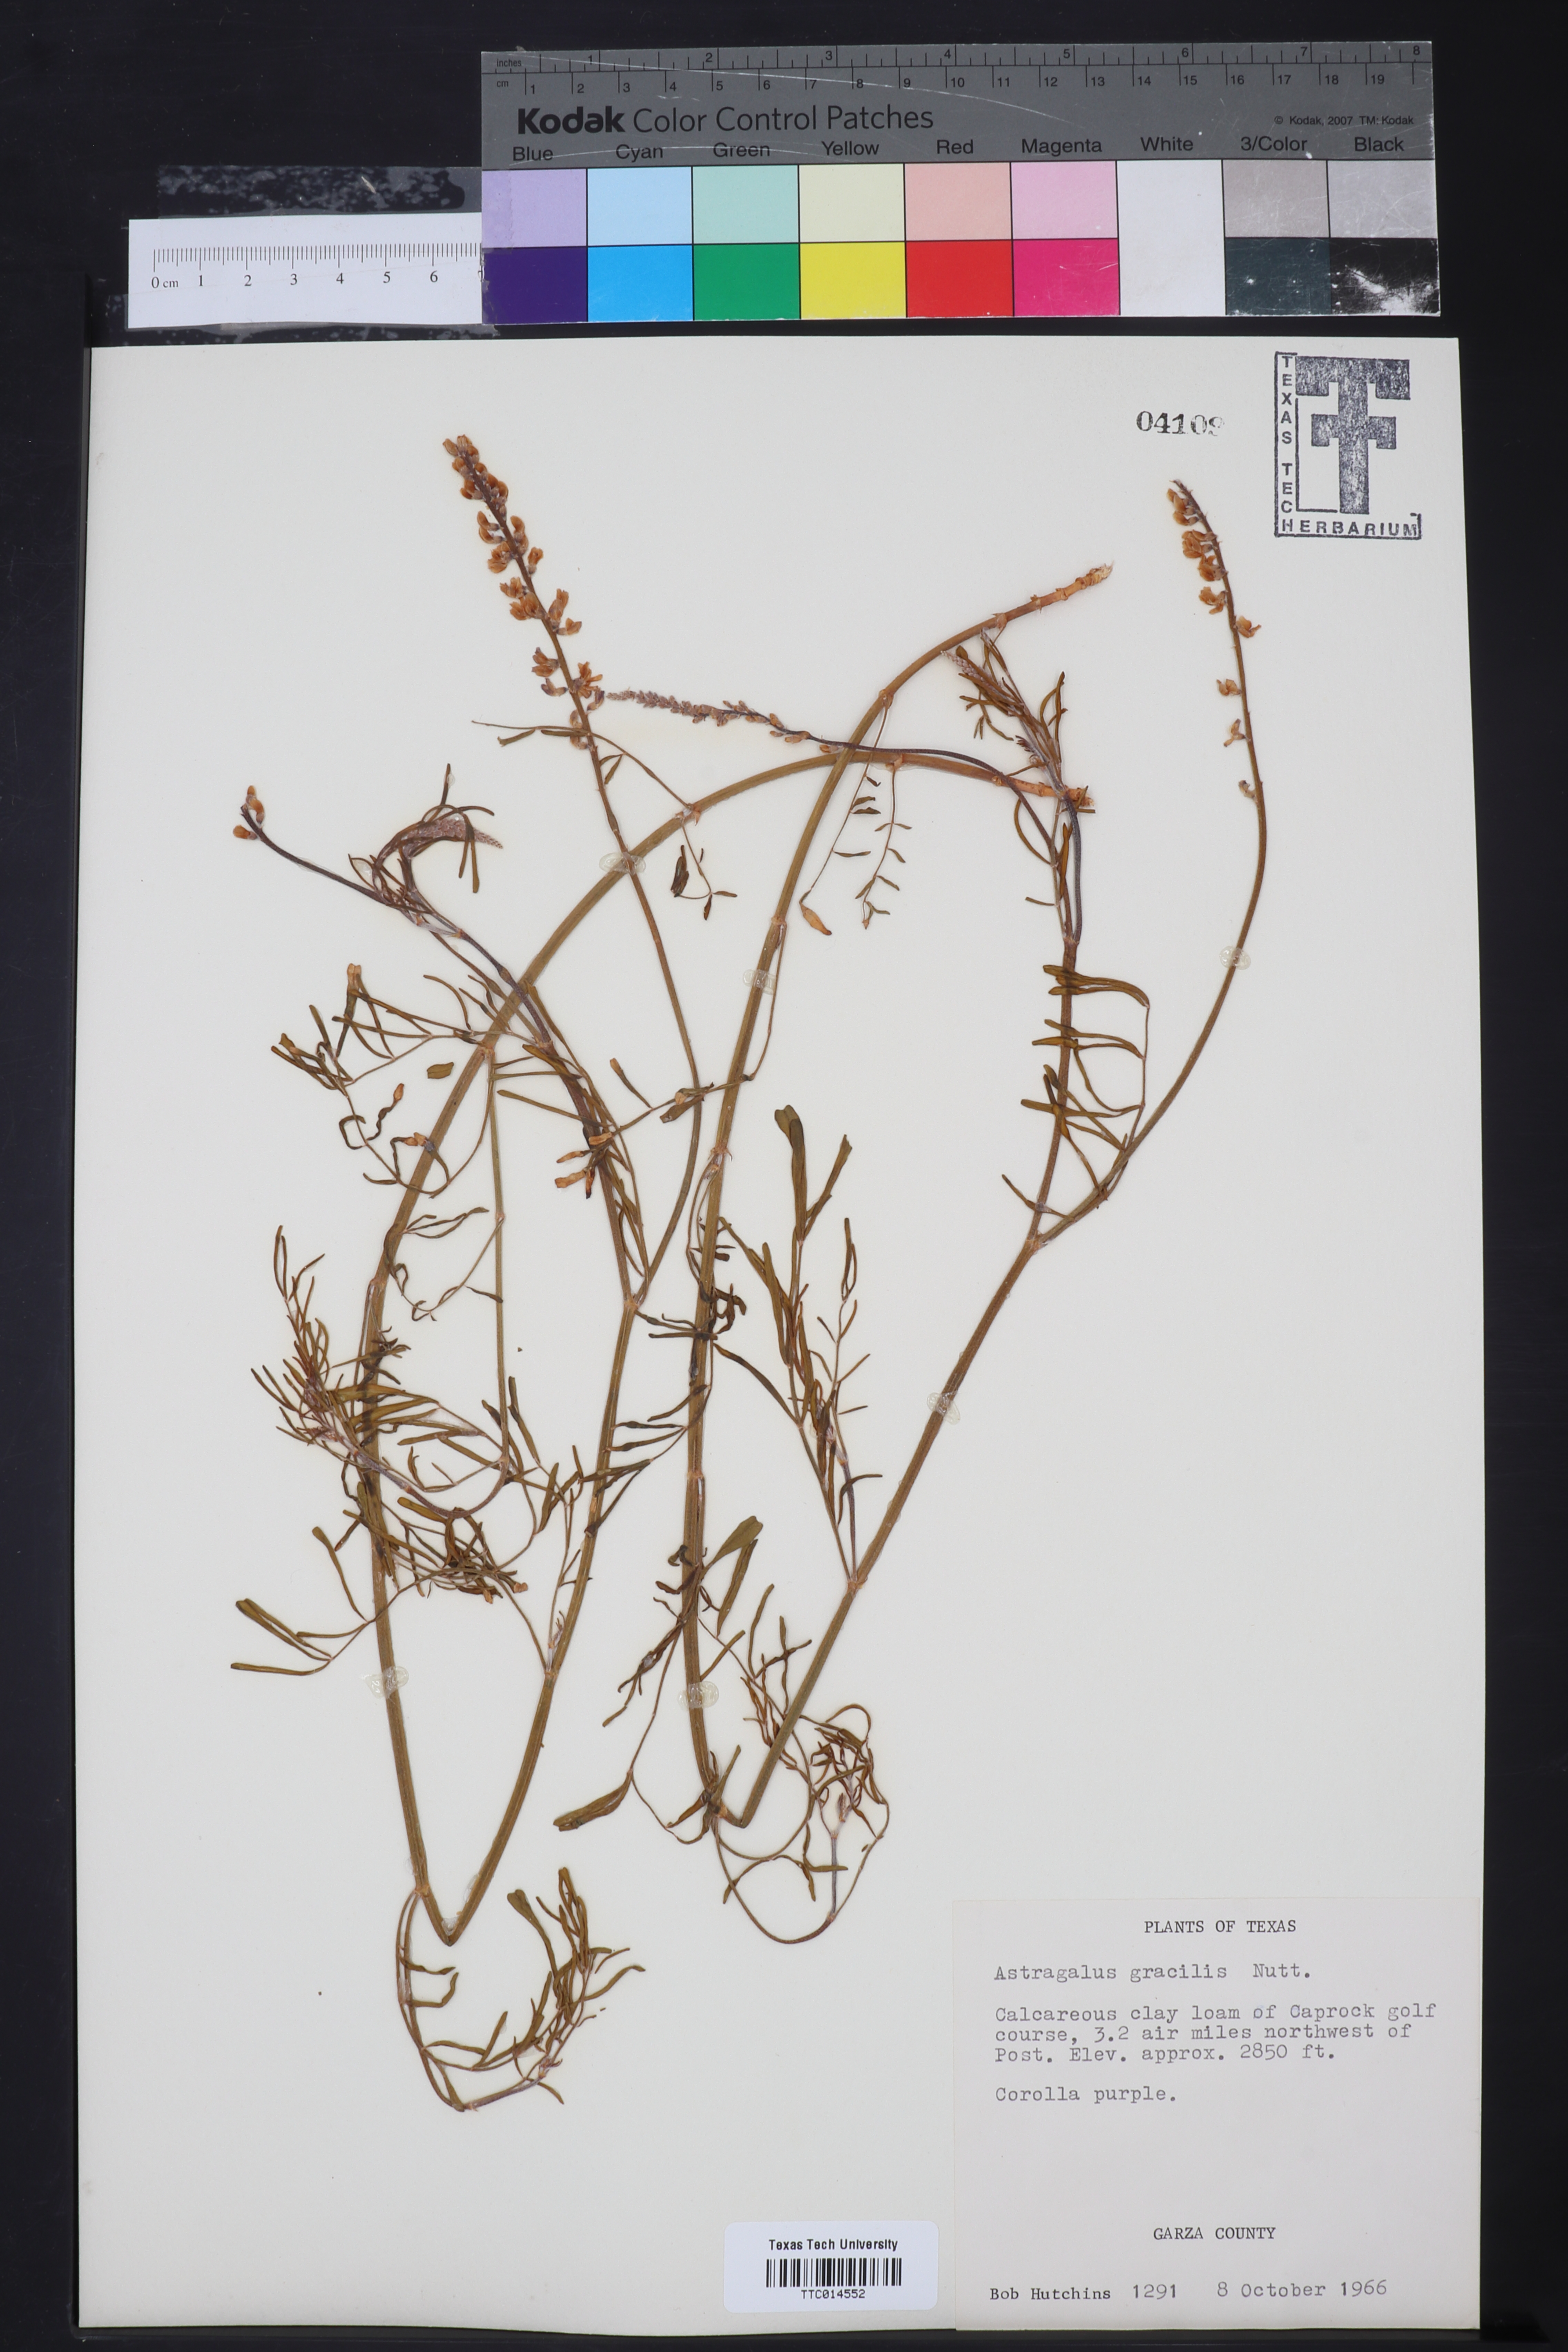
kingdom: Plantae
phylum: Tracheophyta
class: Magnoliopsida
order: Fabales
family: Fabaceae
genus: Astragalus
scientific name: Astragalus gracilis
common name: Slender milk-vetch
